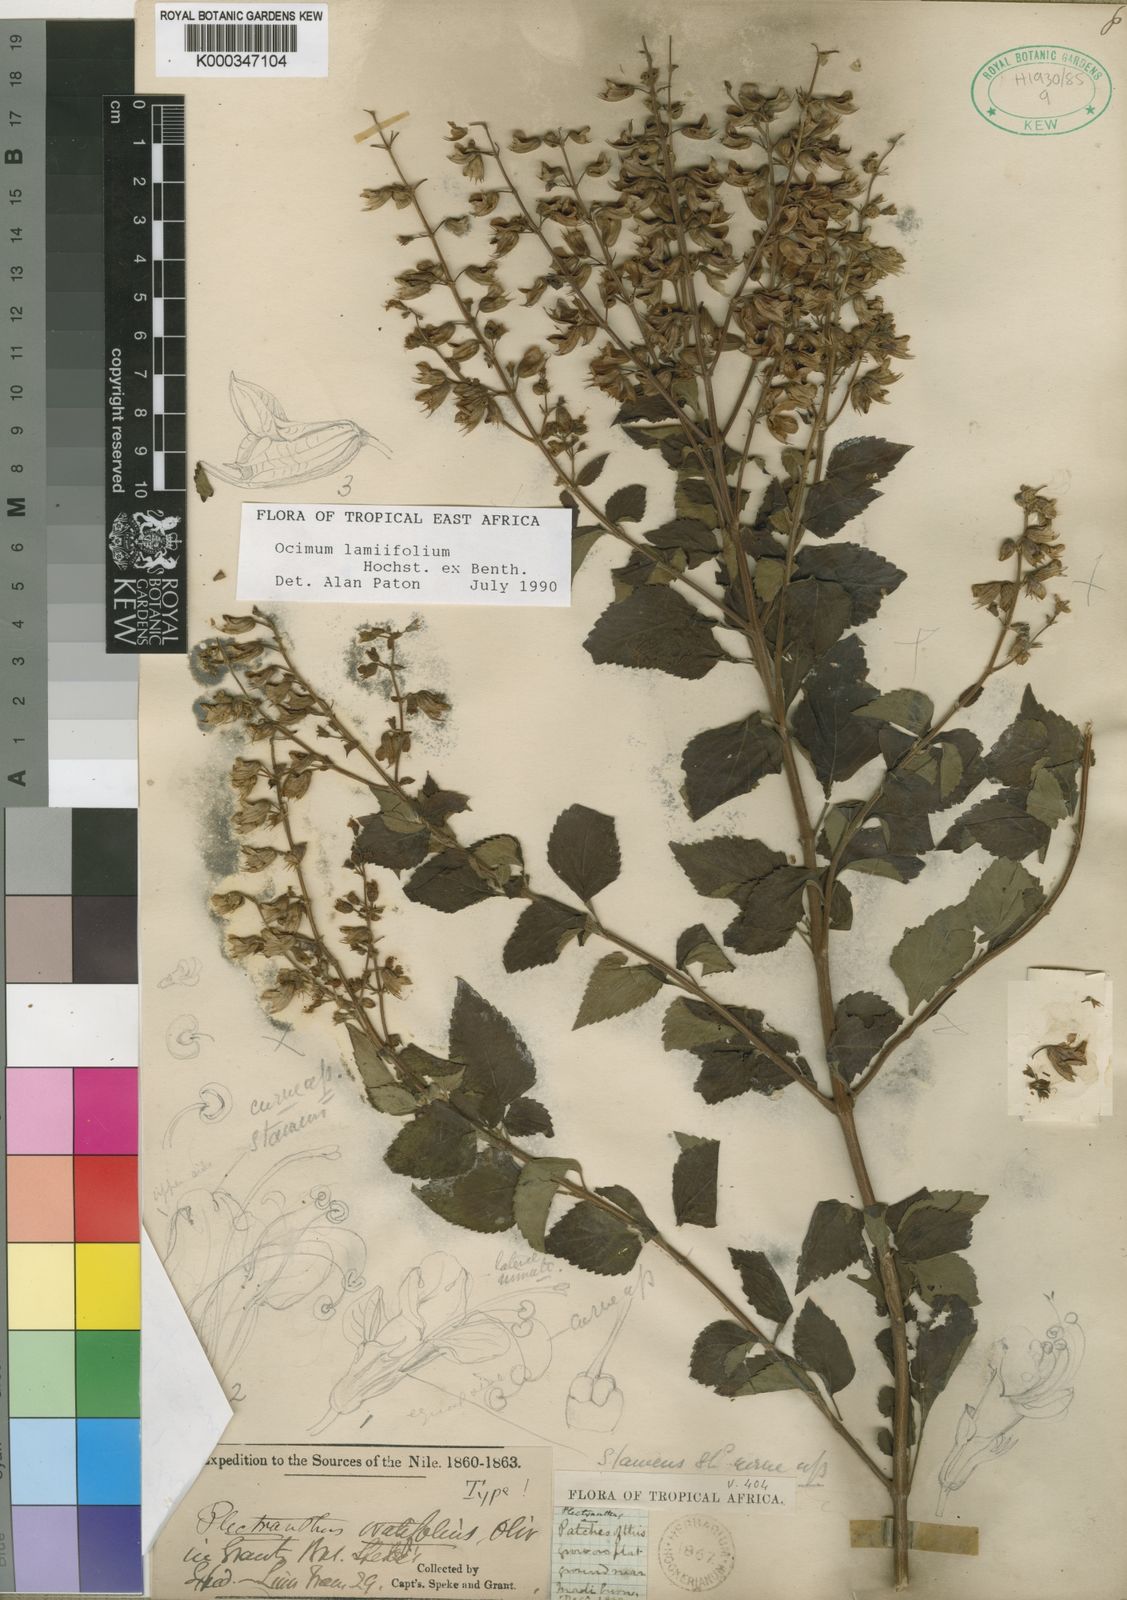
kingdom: Plantae
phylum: Tracheophyta
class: Magnoliopsida
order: Lamiales
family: Lamiaceae
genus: Ocimum
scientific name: Ocimum lamiifolium
